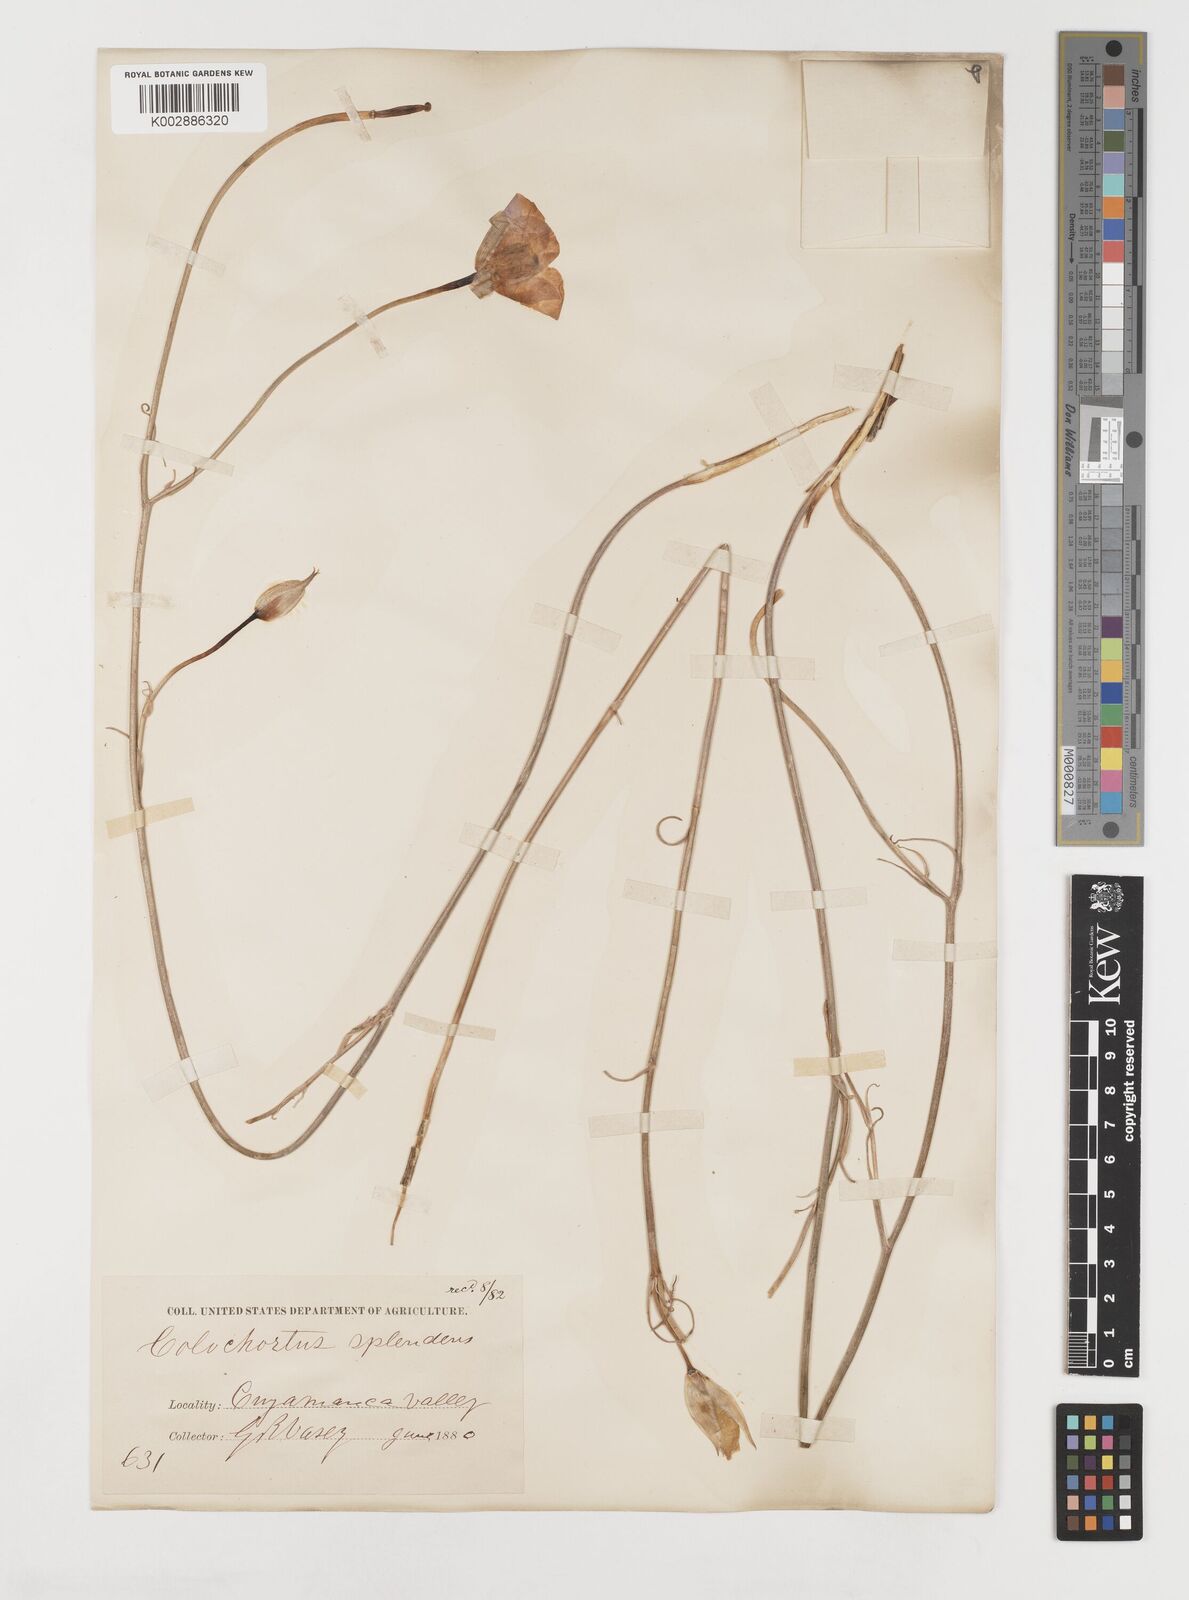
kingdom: Plantae
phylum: Tracheophyta
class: Liliopsida
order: Liliales
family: Liliaceae
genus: Calochortus
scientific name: Calochortus splendens
